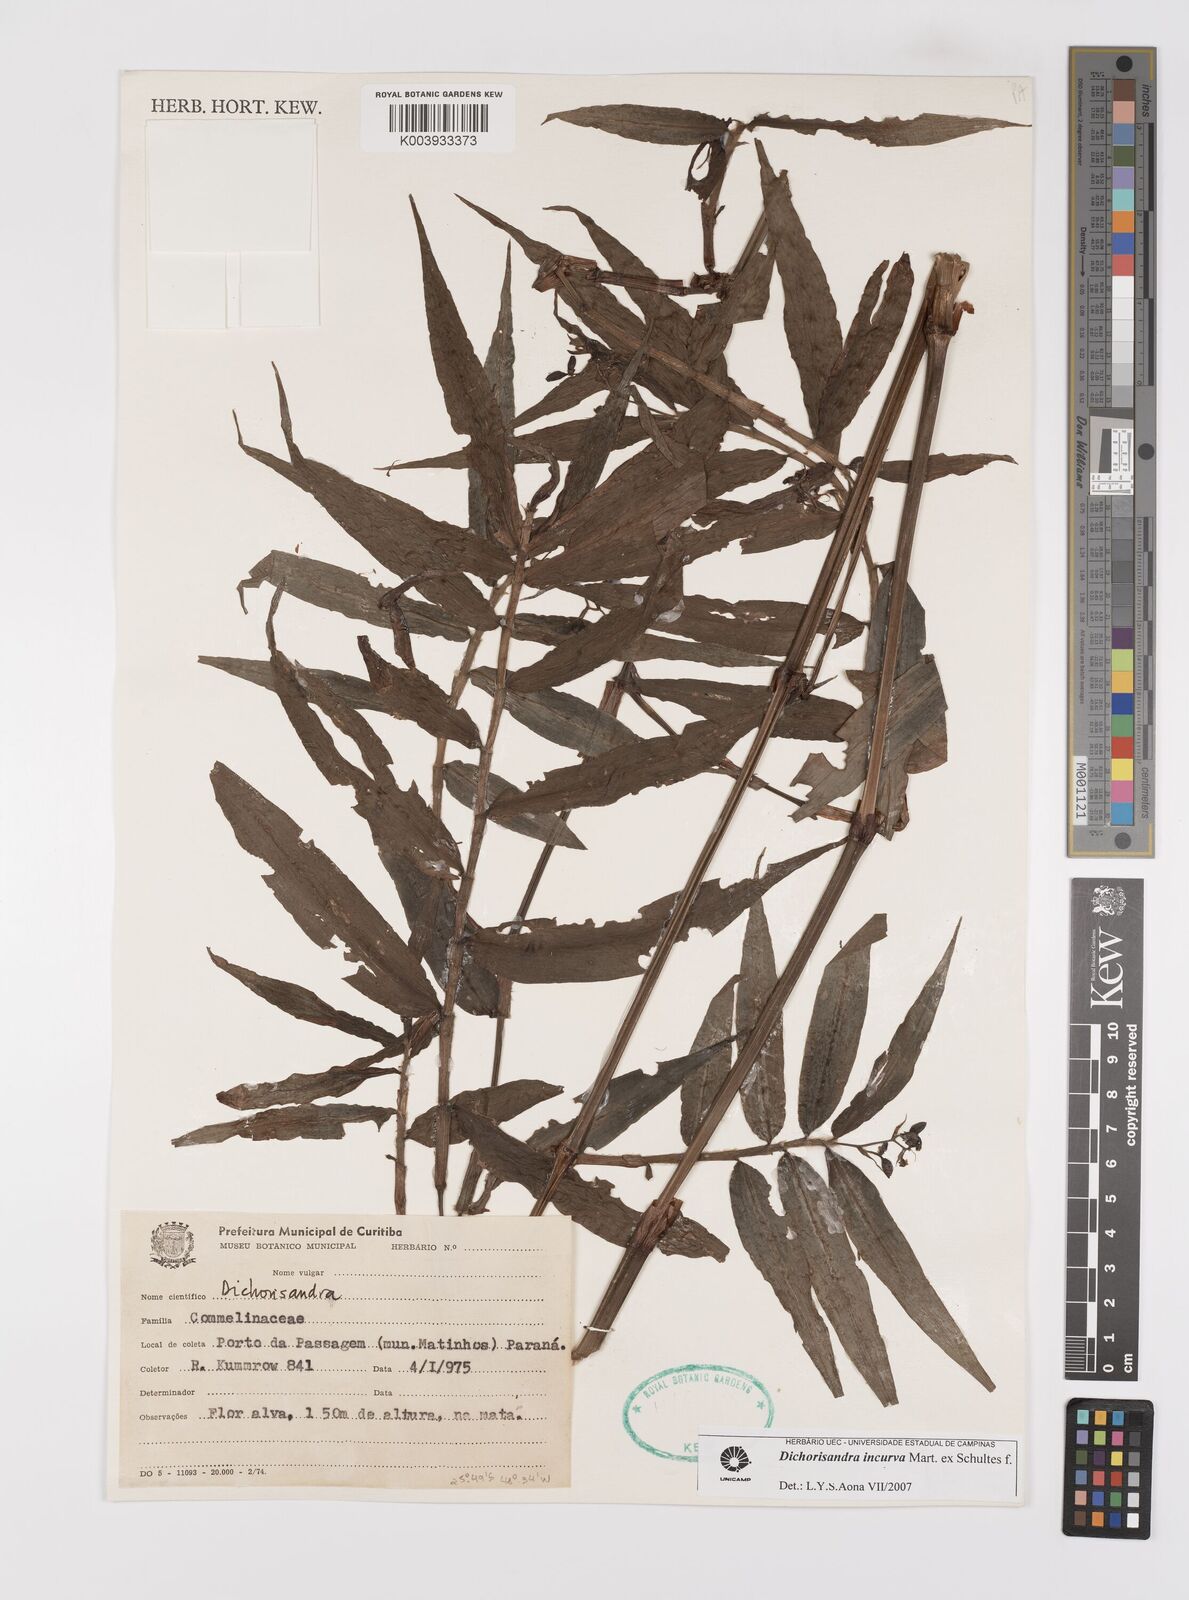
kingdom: Plantae
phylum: Tracheophyta
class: Liliopsida
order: Commelinales
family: Commelinaceae
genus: Dichorisandra
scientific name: Dichorisandra incurva
